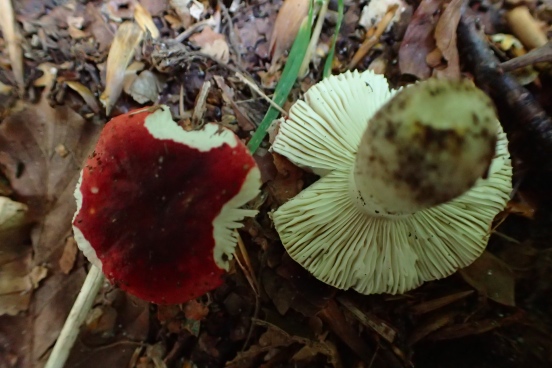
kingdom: Fungi
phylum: Basidiomycota
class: Agaricomycetes
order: Russulales
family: Russulaceae
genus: Russula
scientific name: Russula emeticicolor
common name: giftrød skørhat
